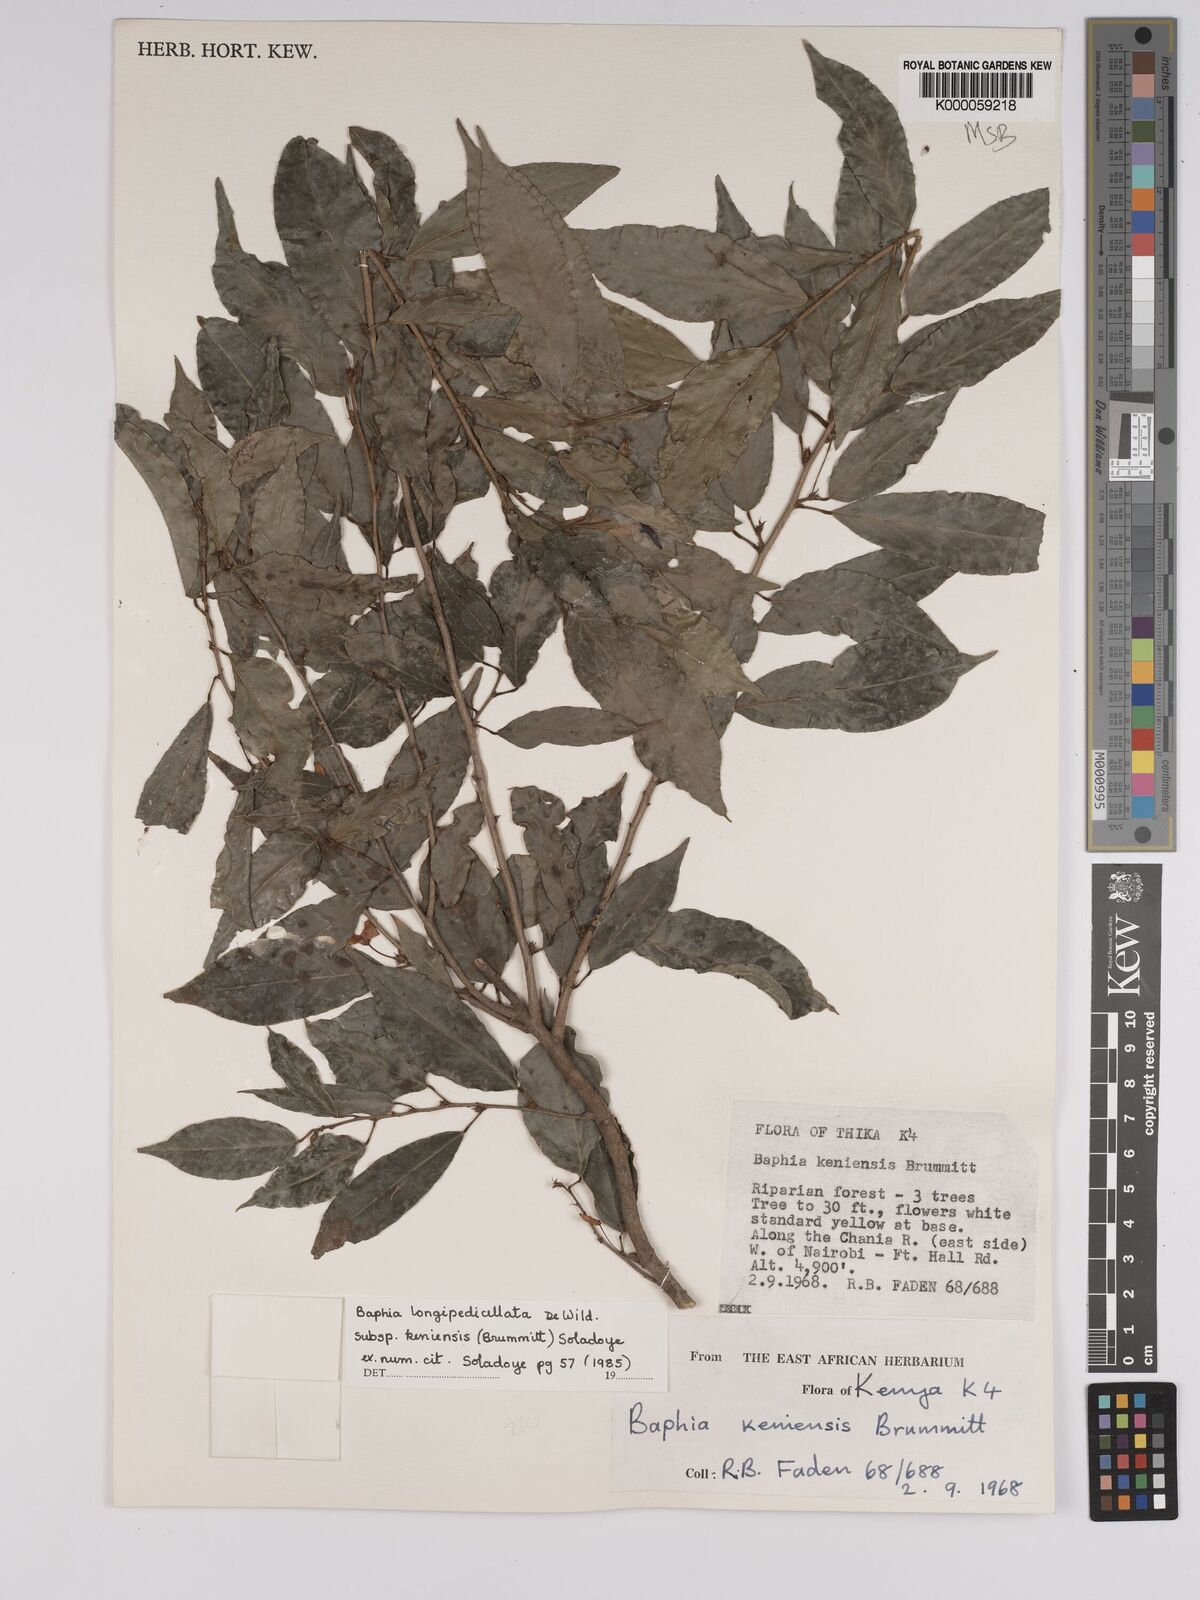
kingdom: Plantae
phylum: Tracheophyta
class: Magnoliopsida
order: Fabales
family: Fabaceae
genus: Baphia
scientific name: Baphia longipedicellata
